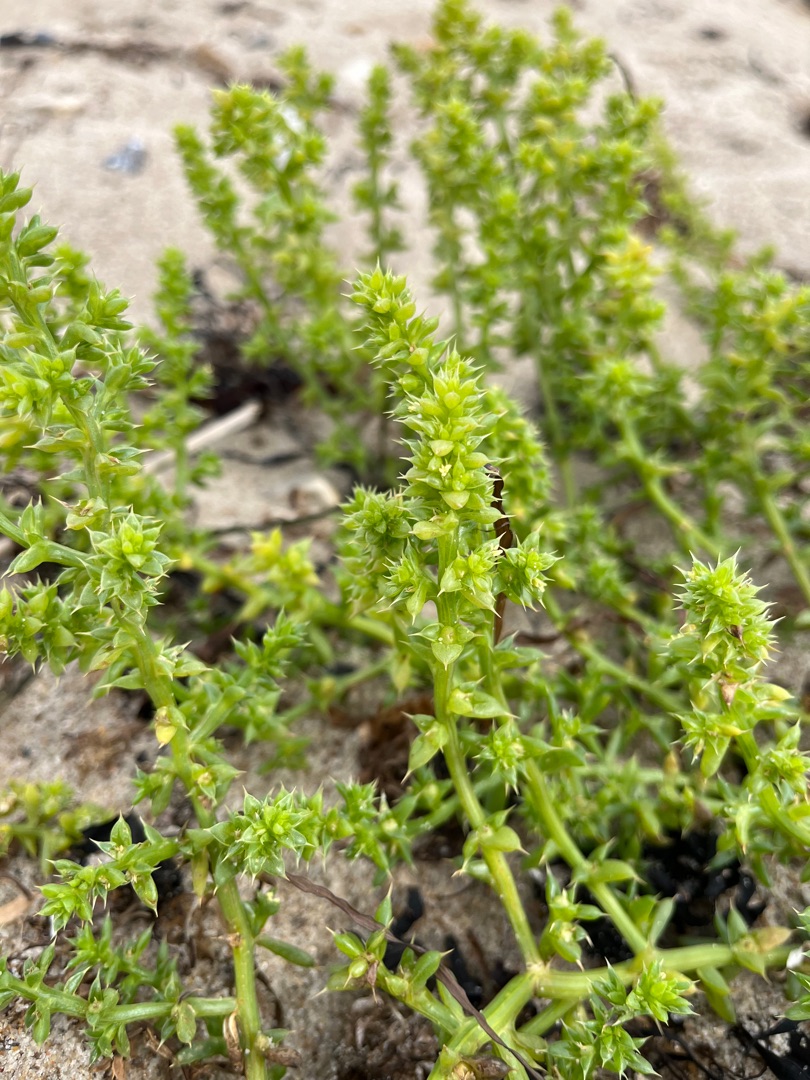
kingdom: Plantae
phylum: Tracheophyta
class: Magnoliopsida
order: Caryophyllales
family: Amaranthaceae
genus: Salsola
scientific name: Salsola kali
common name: Sodaurt
